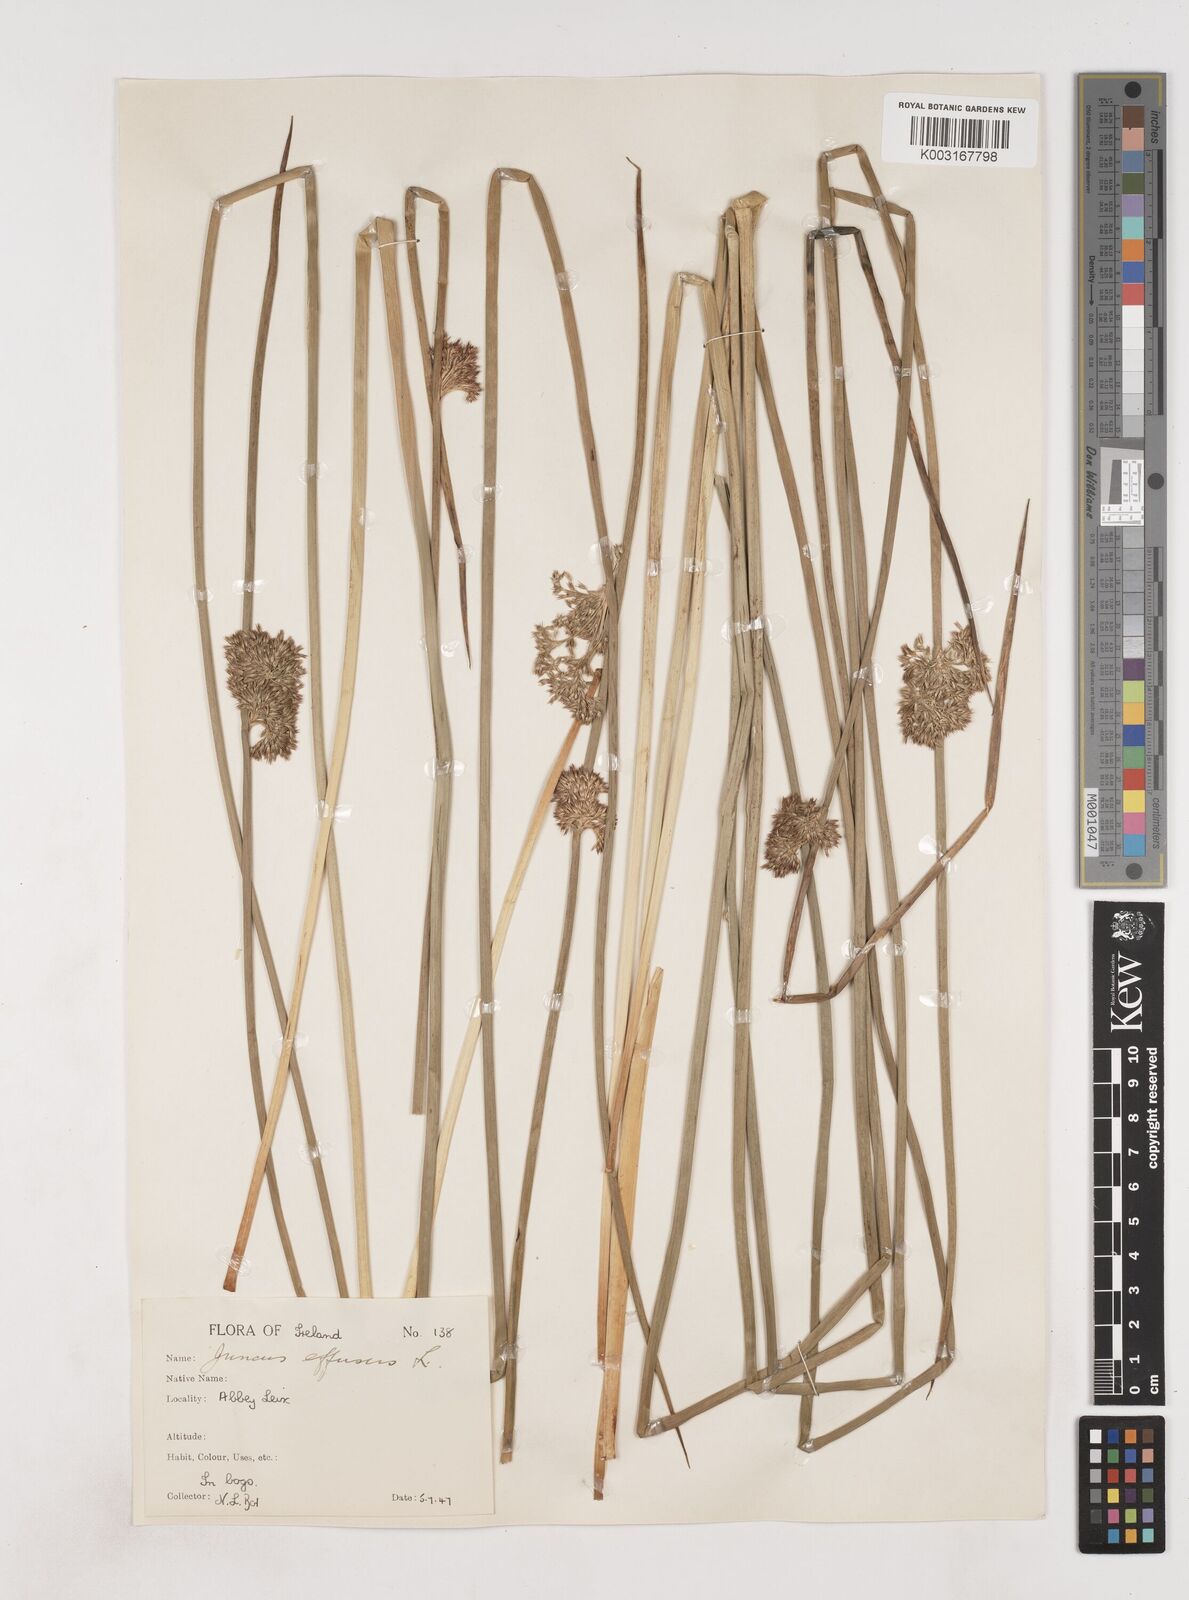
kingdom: Plantae
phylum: Tracheophyta
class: Liliopsida
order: Poales
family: Juncaceae
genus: Juncus
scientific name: Juncus effusus
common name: Soft rush
